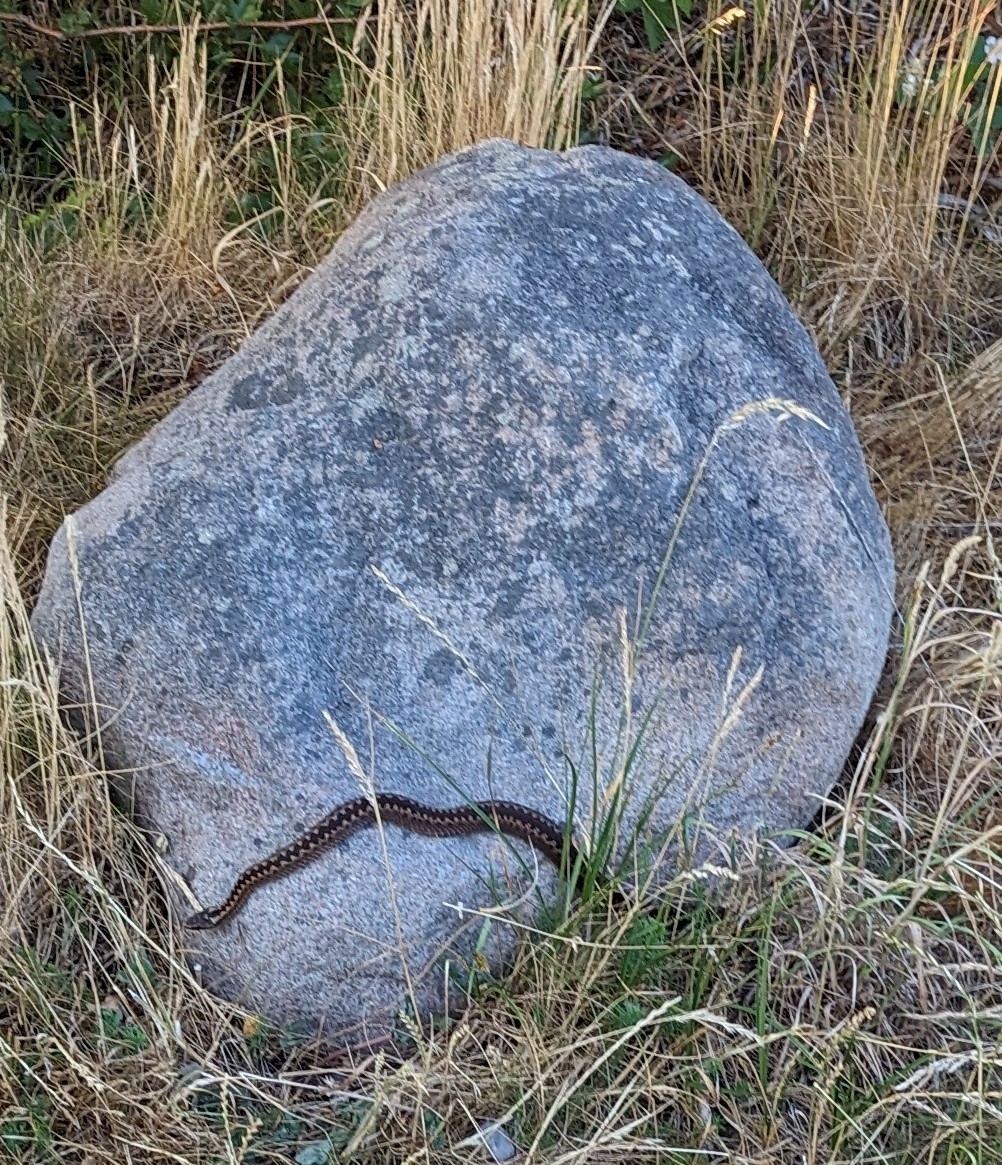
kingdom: Animalia
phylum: Chordata
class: Squamata
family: Viperidae
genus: Vipera
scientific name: Vipera berus
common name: Hugorm
